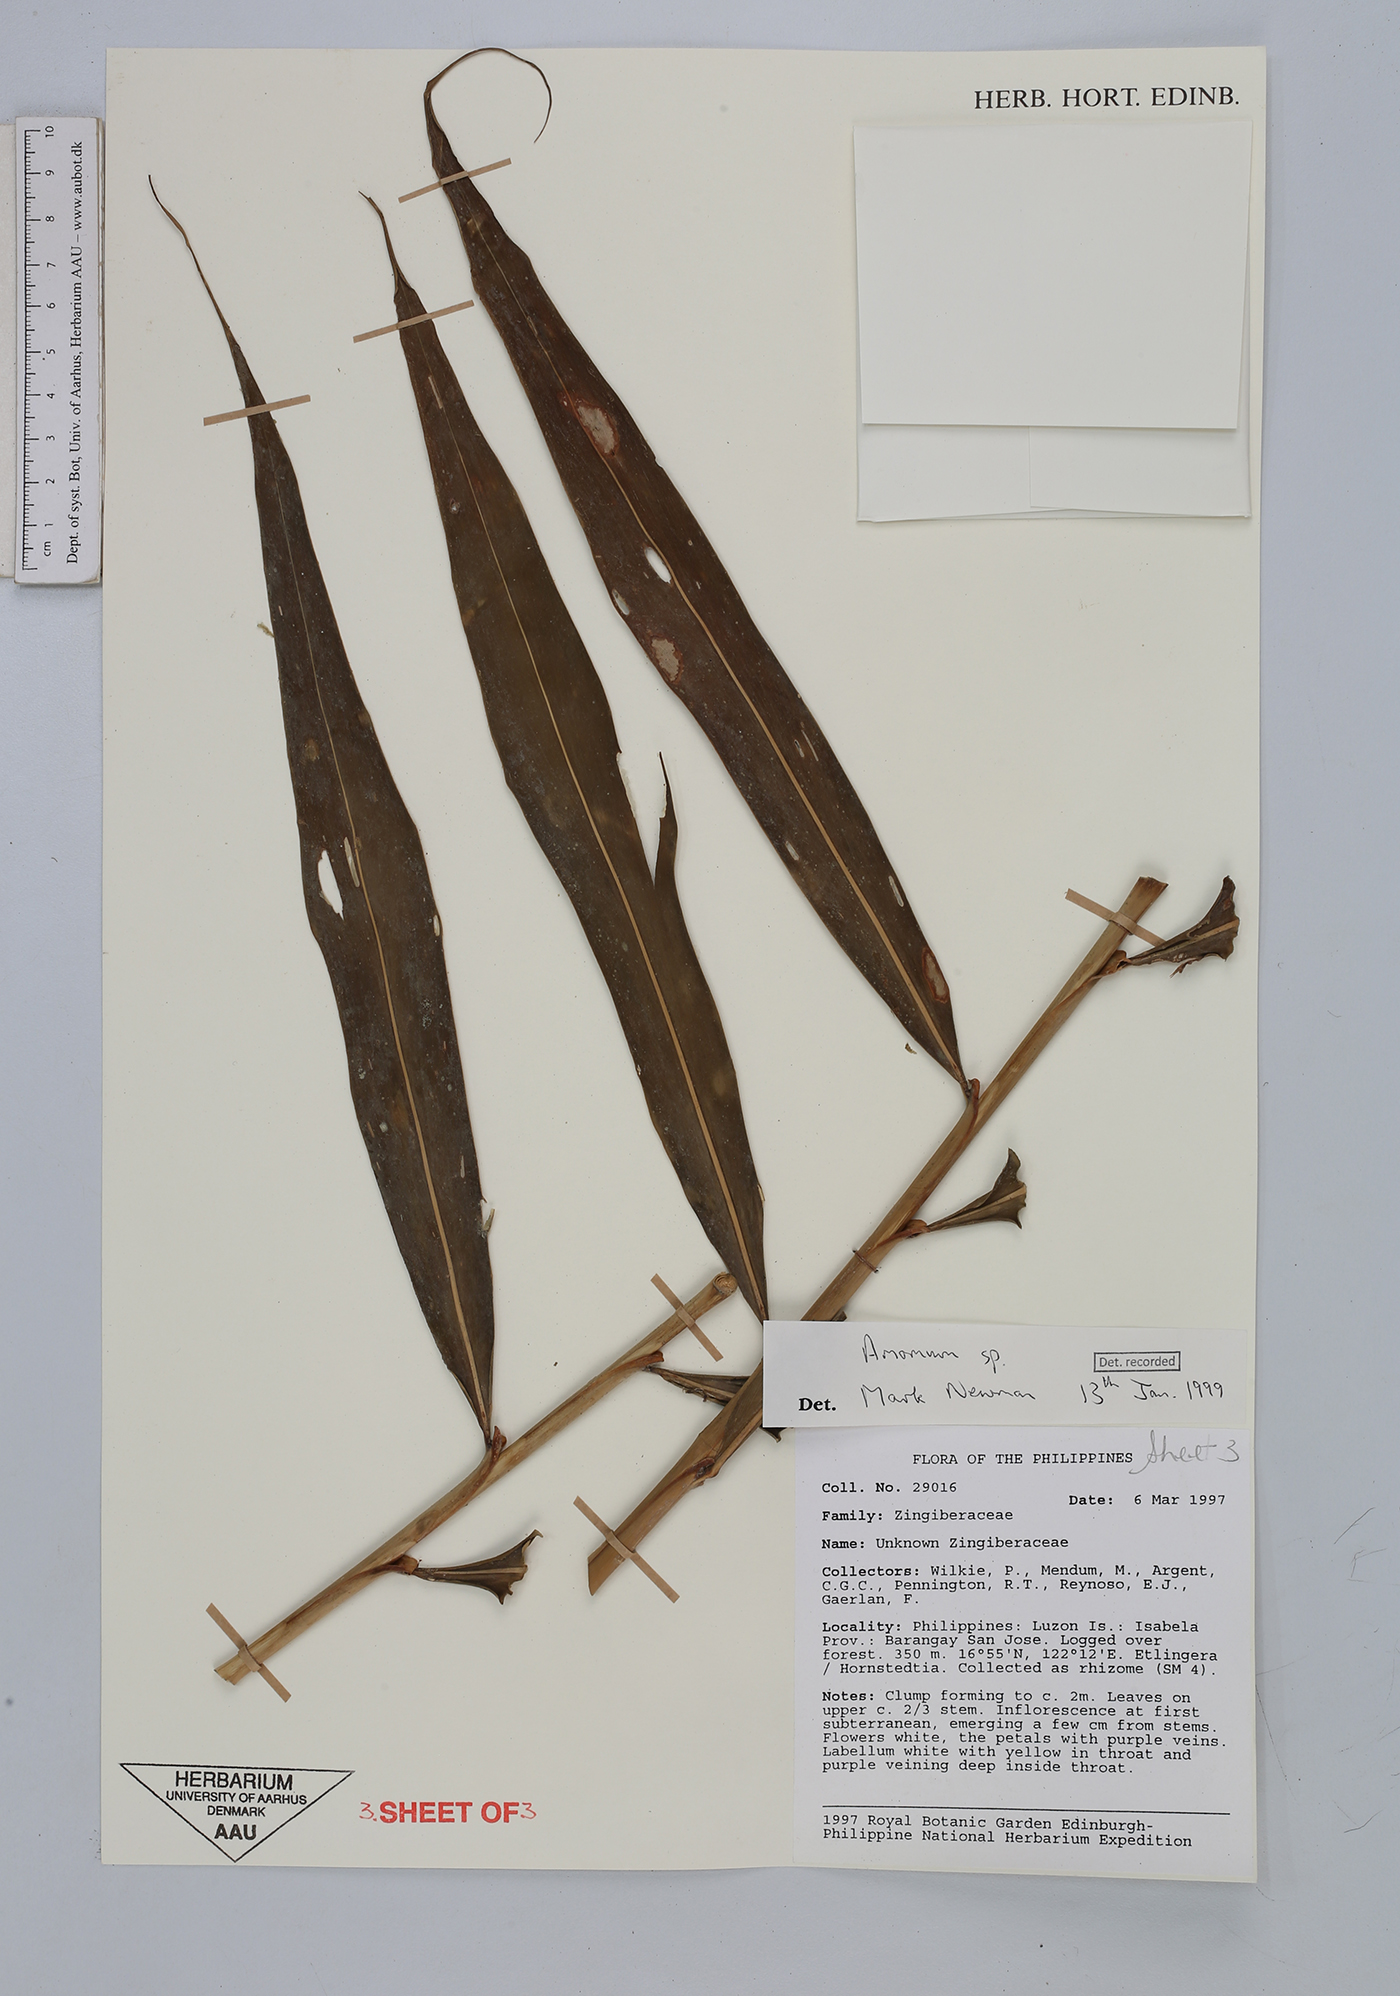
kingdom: Plantae
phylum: Tracheophyta
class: Liliopsida
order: Zingiberales
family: Zingiberaceae
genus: Amomum
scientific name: Amomum
